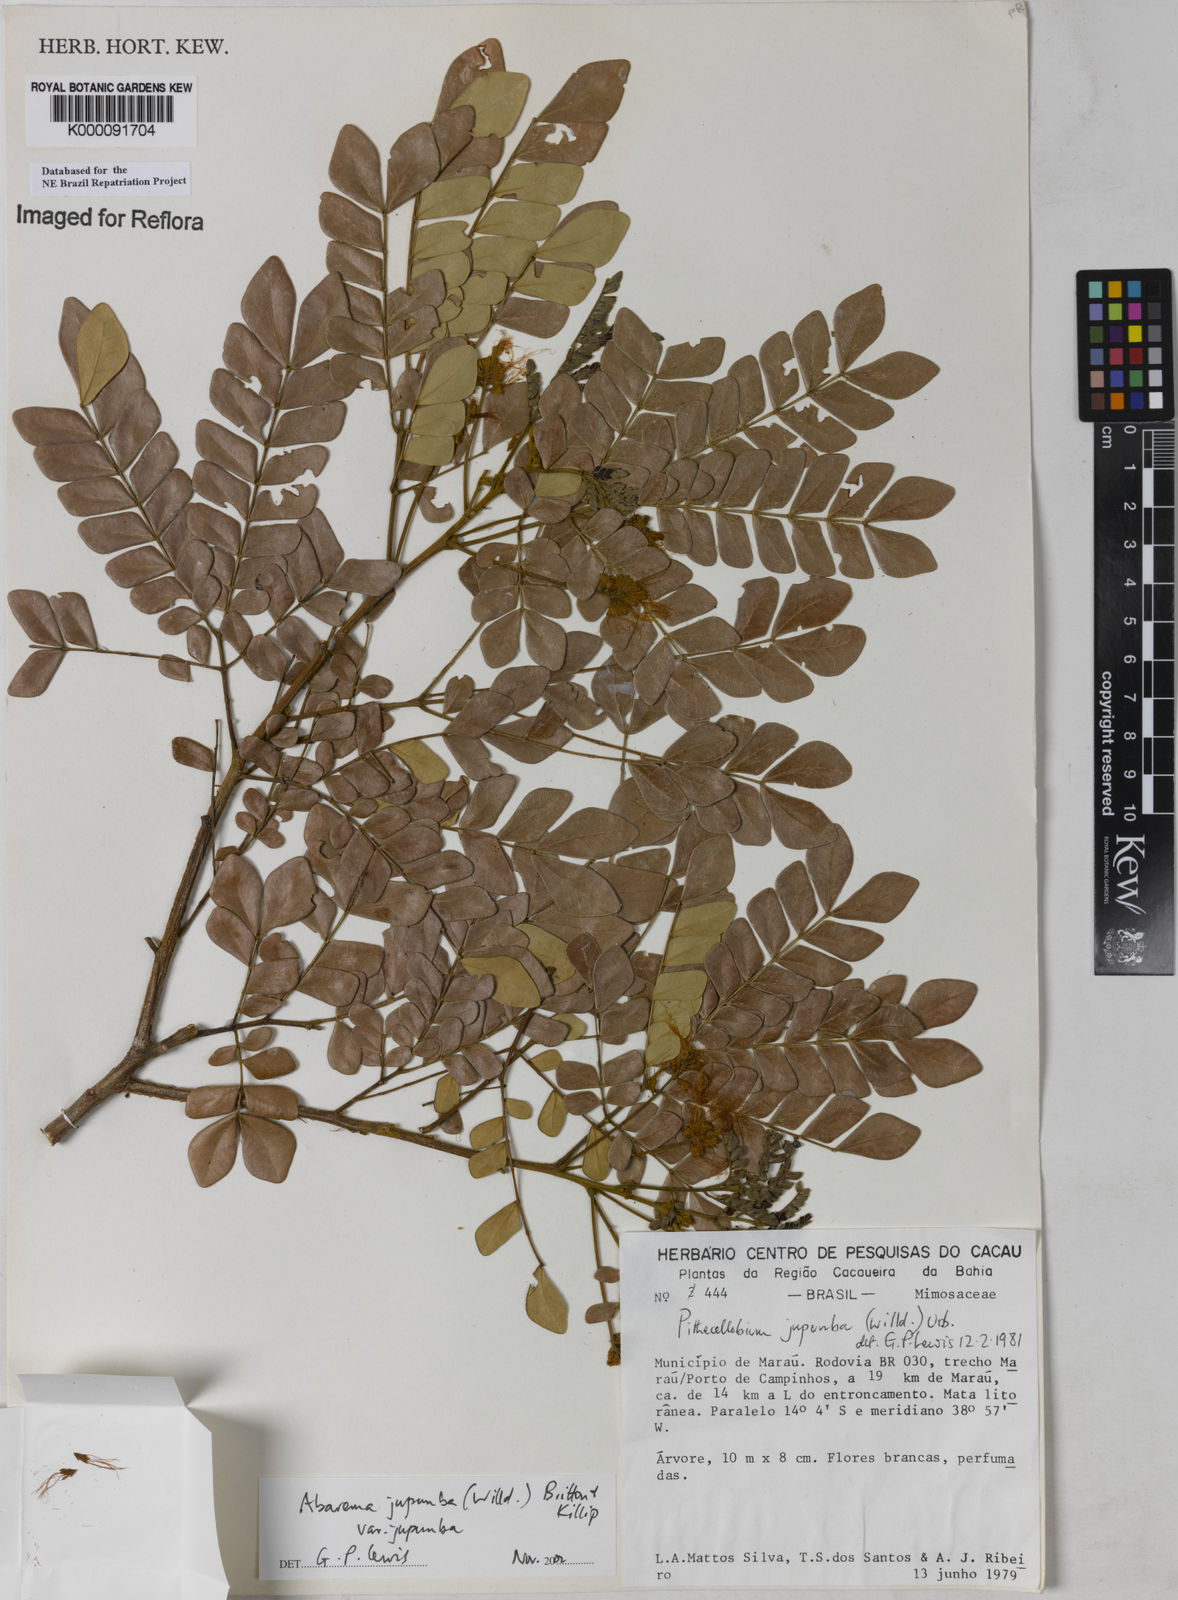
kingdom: Plantae
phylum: Tracheophyta
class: Magnoliopsida
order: Fabales
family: Fabaceae
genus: Jupunba
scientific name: Jupunba trapezifolia
